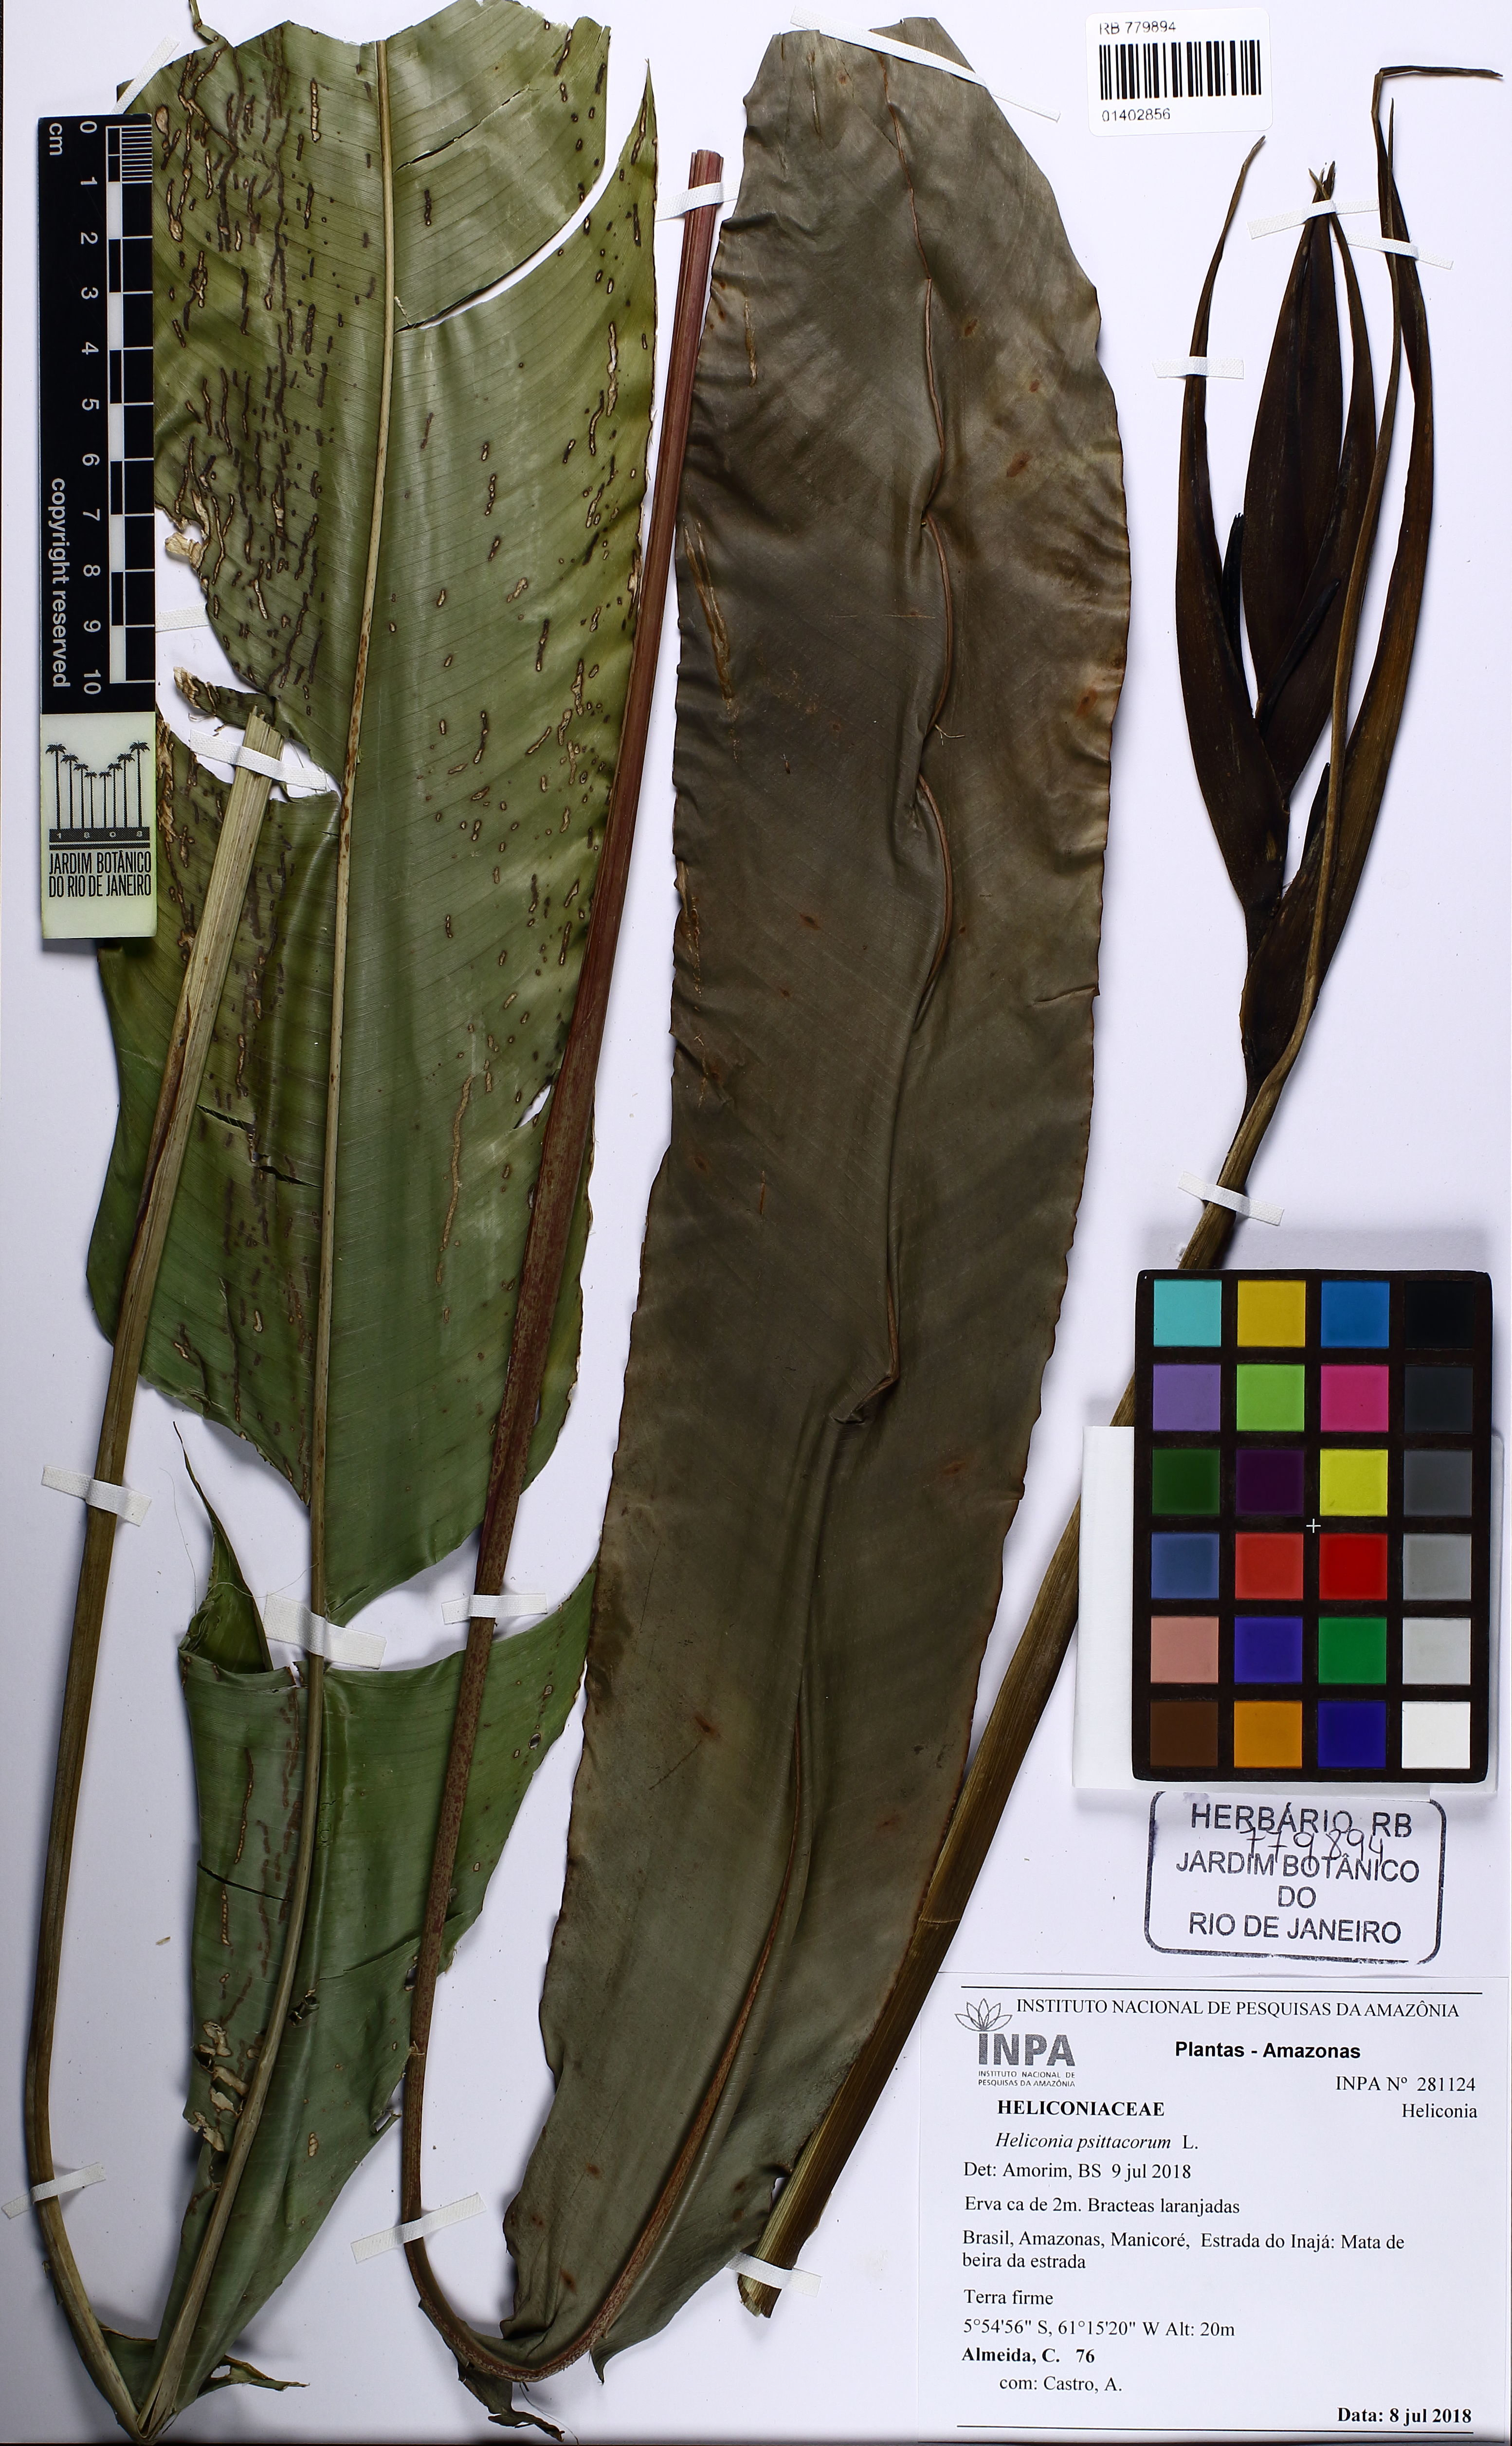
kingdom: Plantae
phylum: Tracheophyta
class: Liliopsida
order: Zingiberales
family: Heliconiaceae
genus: Heliconia
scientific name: Heliconia psittacorum
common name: Parrot's-flower
